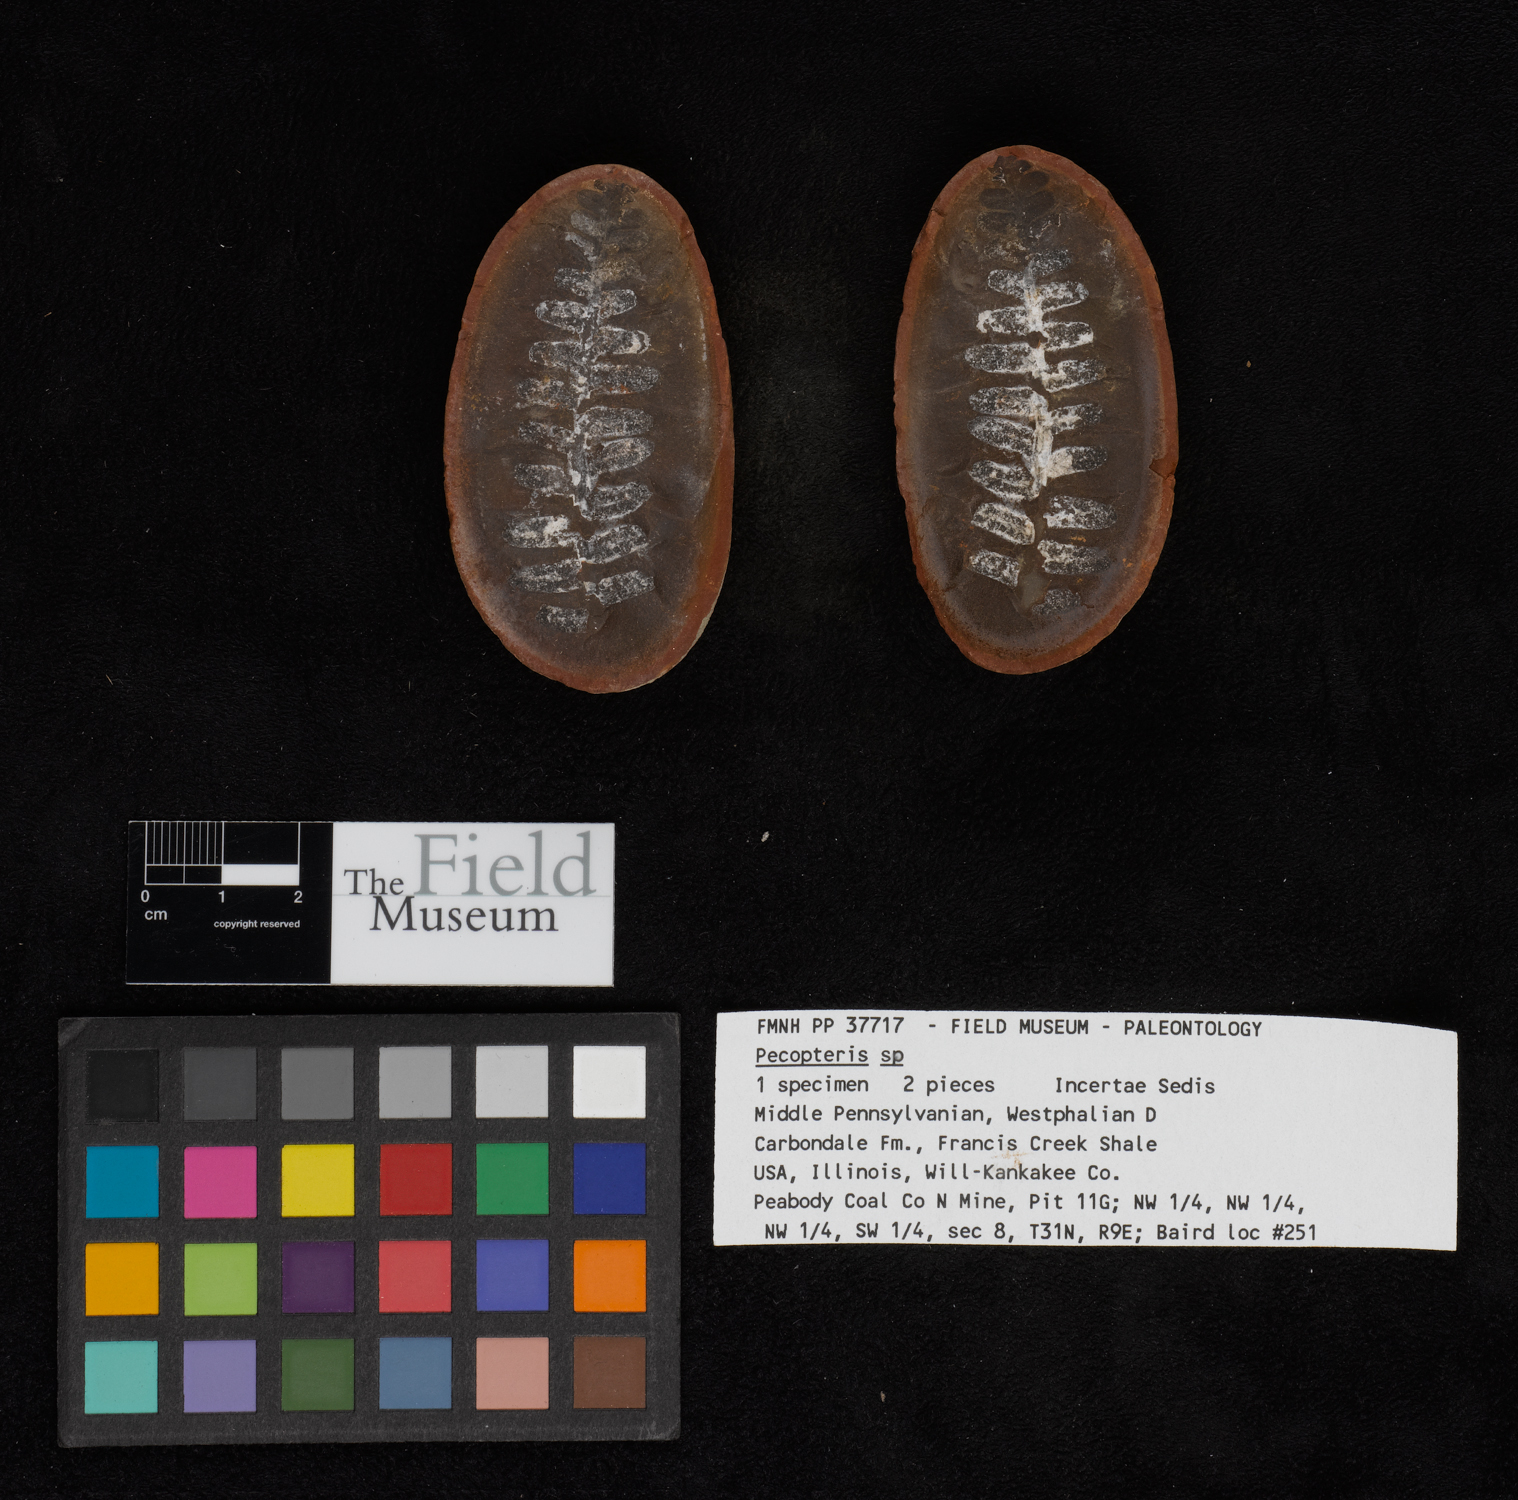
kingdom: Plantae
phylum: Tracheophyta
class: Polypodiopsida
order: Marattiales
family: Asterothecaceae
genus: Pecopteris
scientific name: Pecopteris
